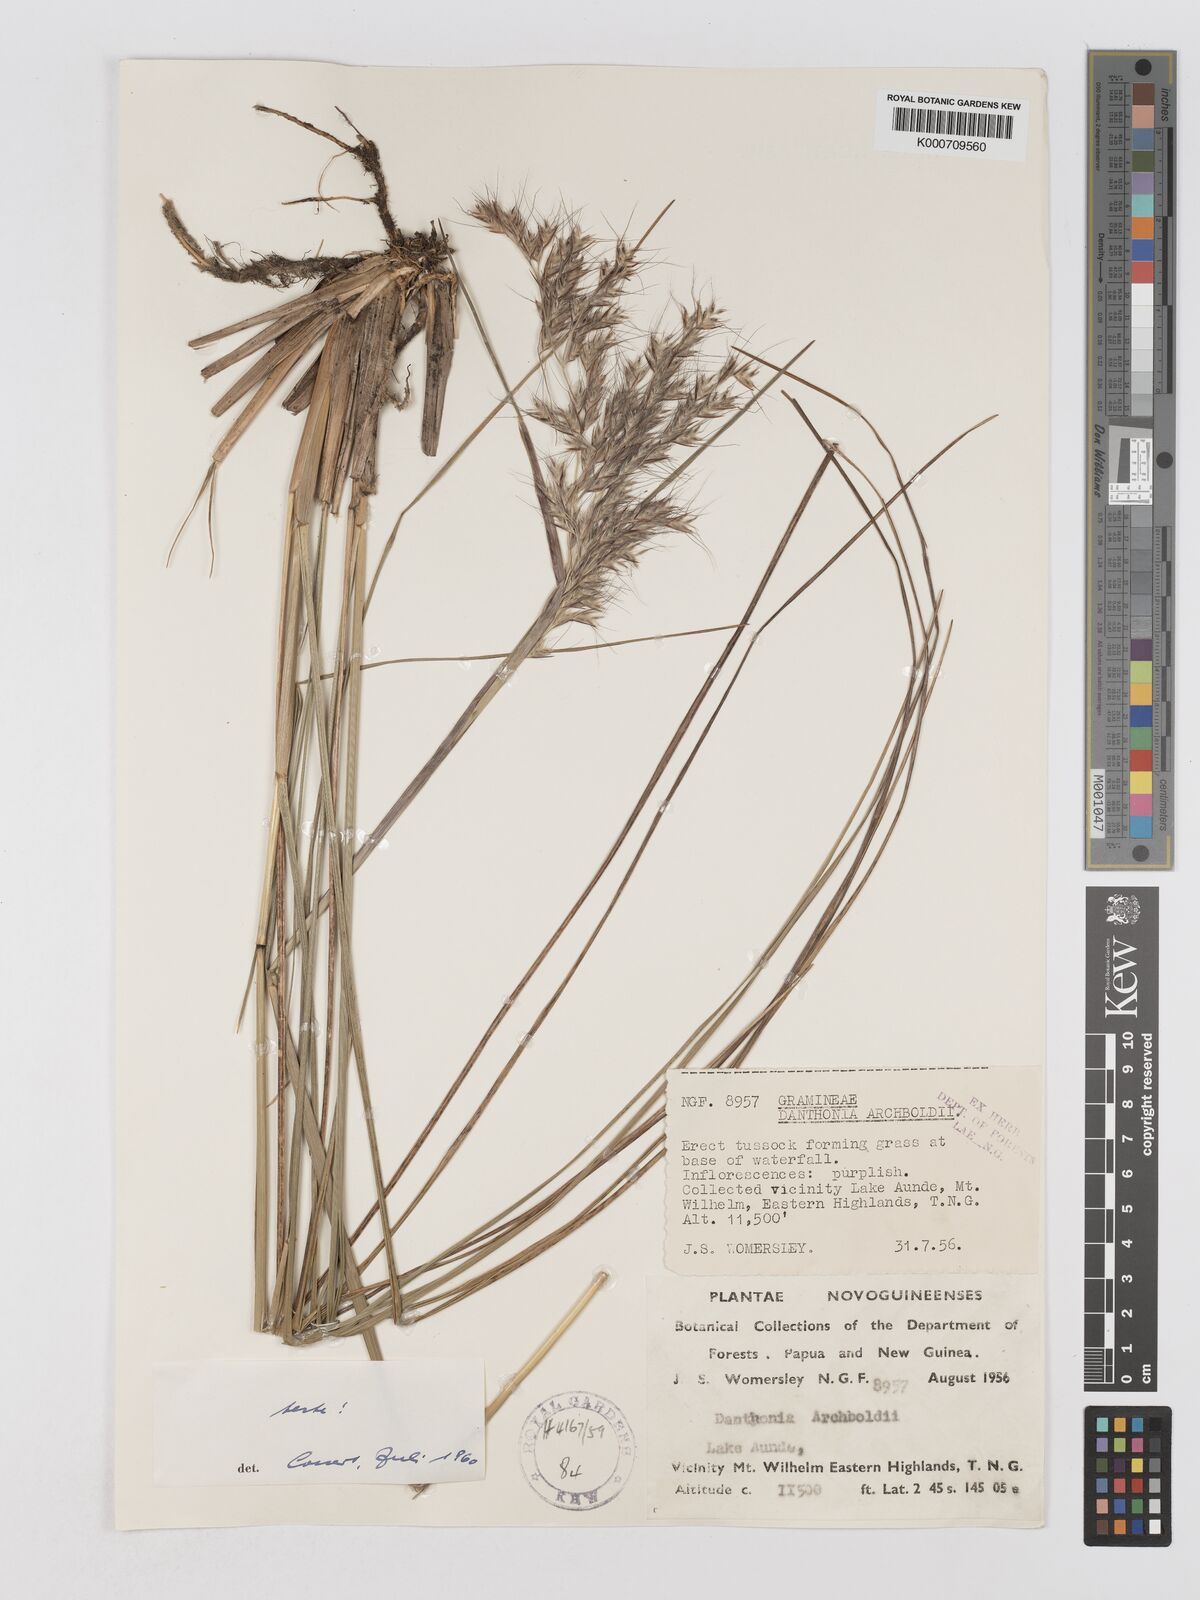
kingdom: Plantae
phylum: Tracheophyta
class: Liliopsida
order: Poales
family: Poaceae
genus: Chimaerochloa
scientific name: Chimaerochloa archboldii
